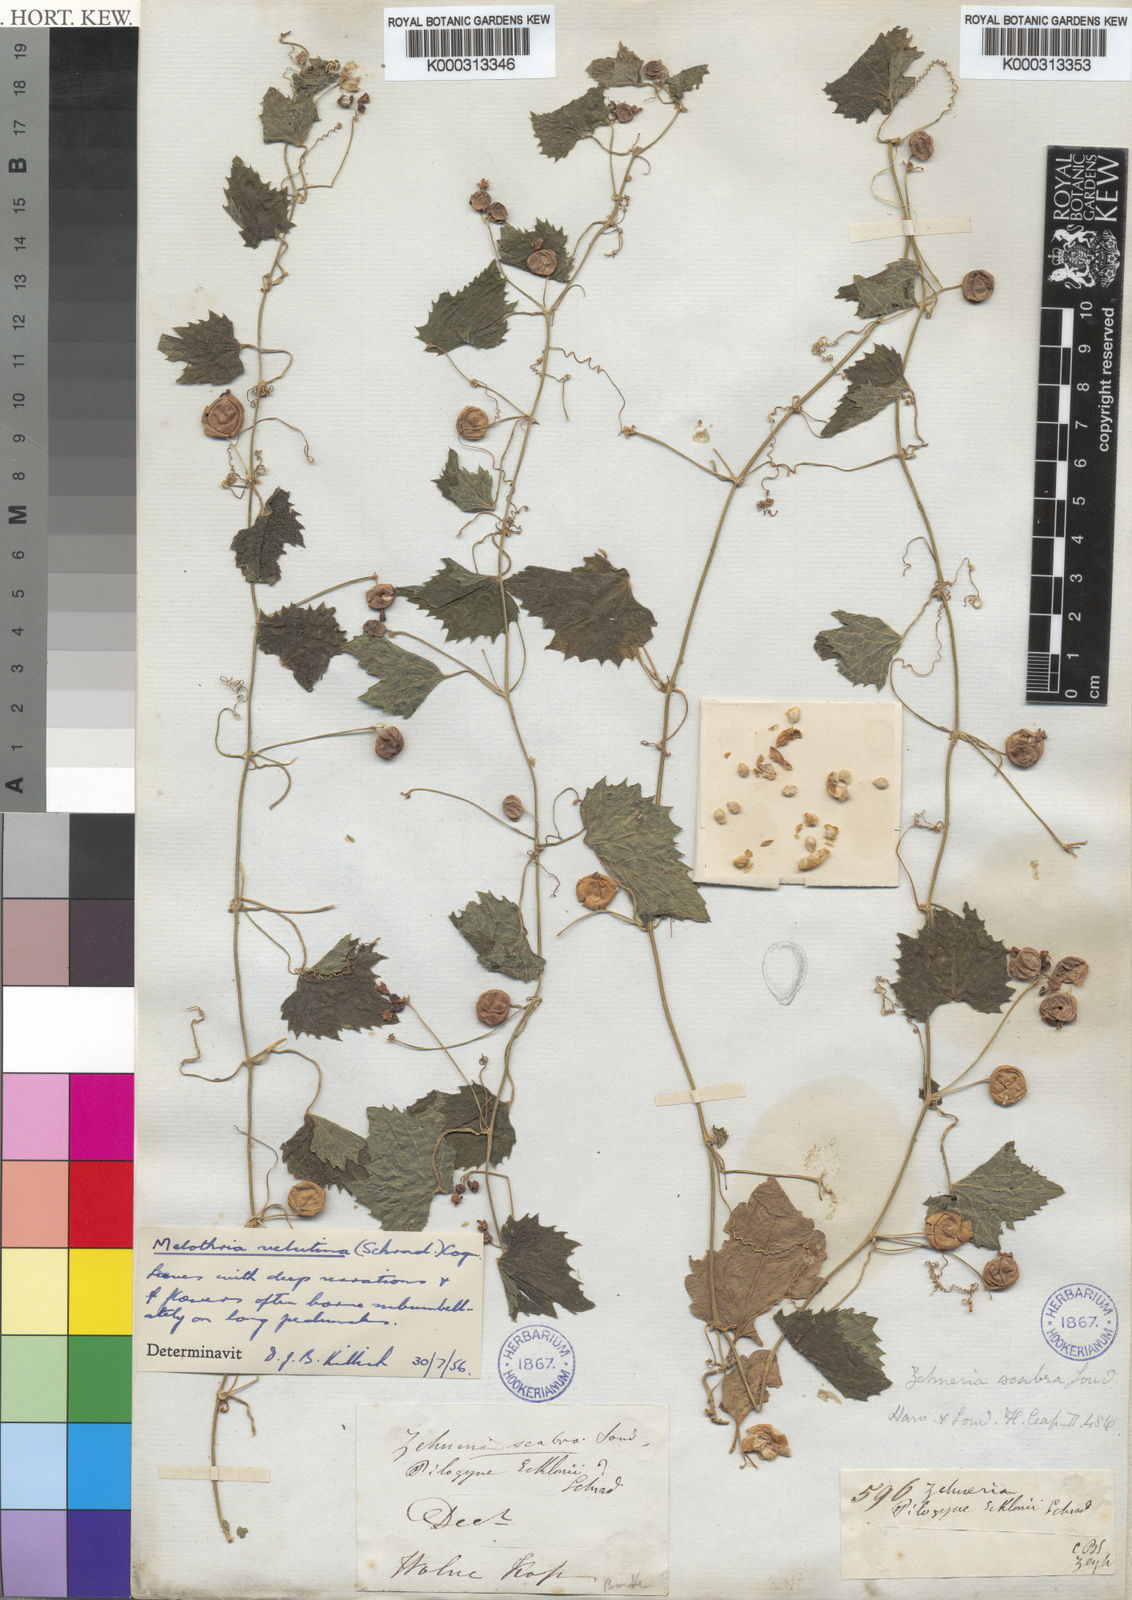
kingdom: Plantae
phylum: Tracheophyta
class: Magnoliopsida
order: Cucurbitales
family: Cucurbitaceae
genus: Zehneria
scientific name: Zehneria scabra
